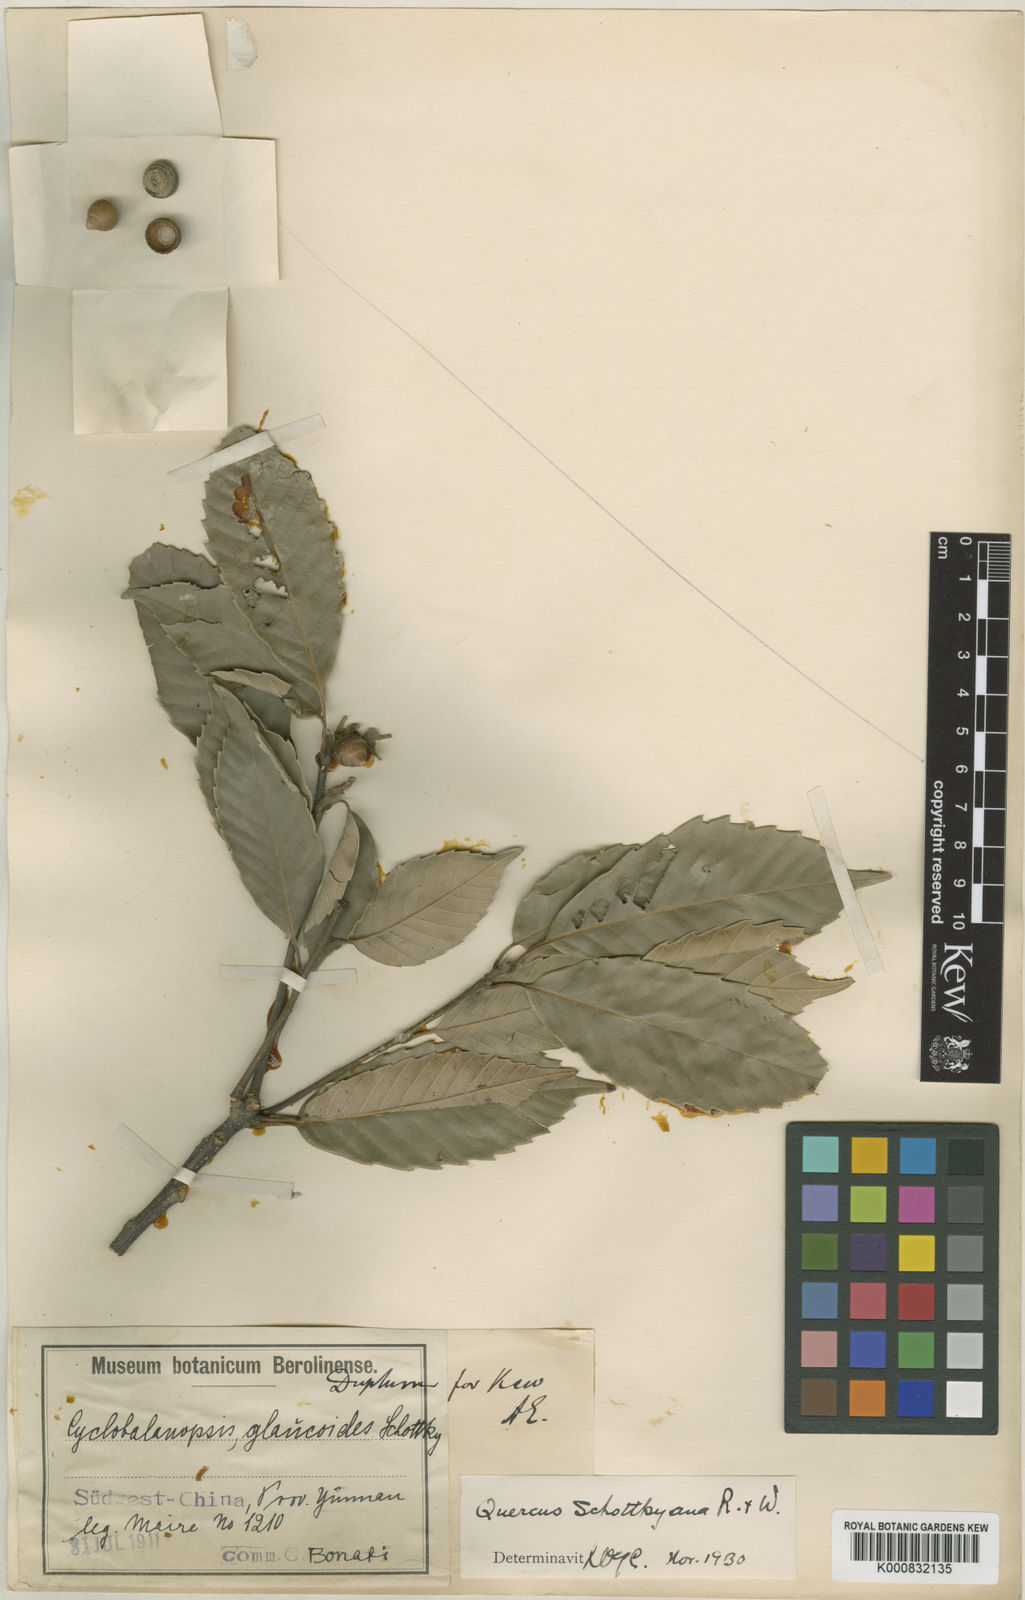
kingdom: Plantae
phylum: Tracheophyta
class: Magnoliopsida
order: Fagales
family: Fagaceae
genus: Quercus
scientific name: Quercus schottkyana
